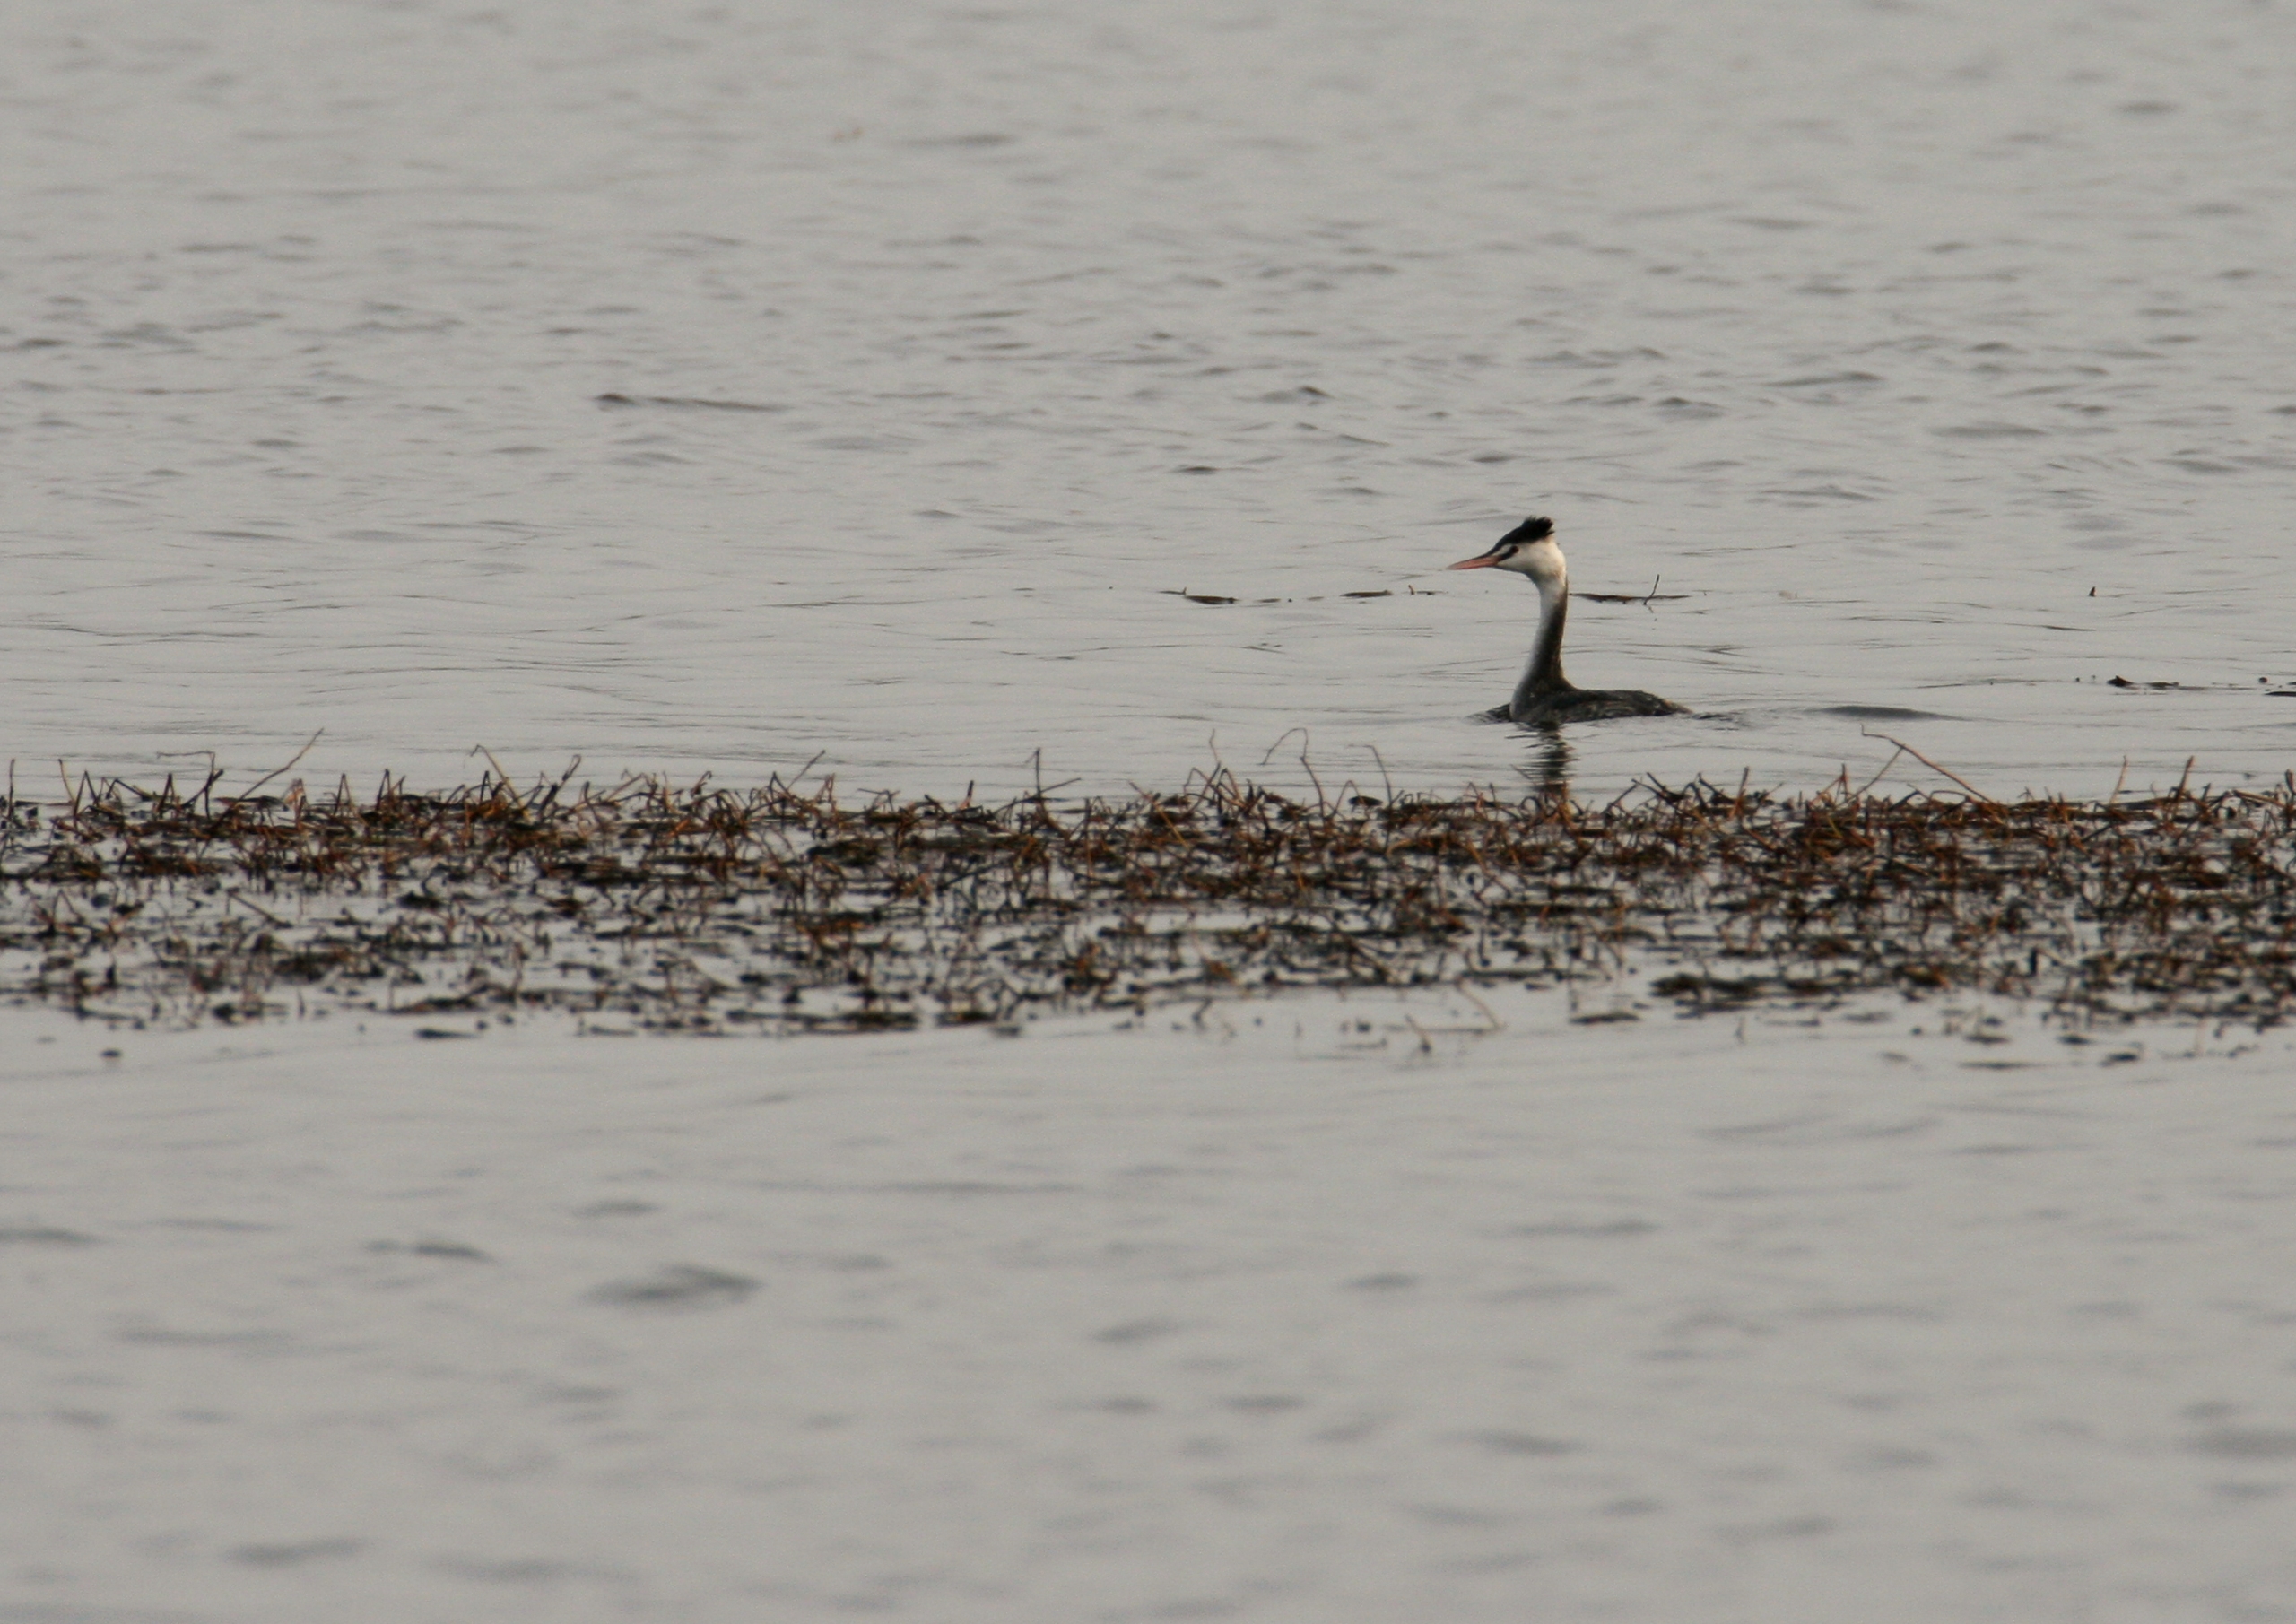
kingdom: Animalia
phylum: Chordata
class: Aves
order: Podicipediformes
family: Podicipedidae
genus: Podiceps
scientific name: Podiceps cristatus
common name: Toppet lappedykker
